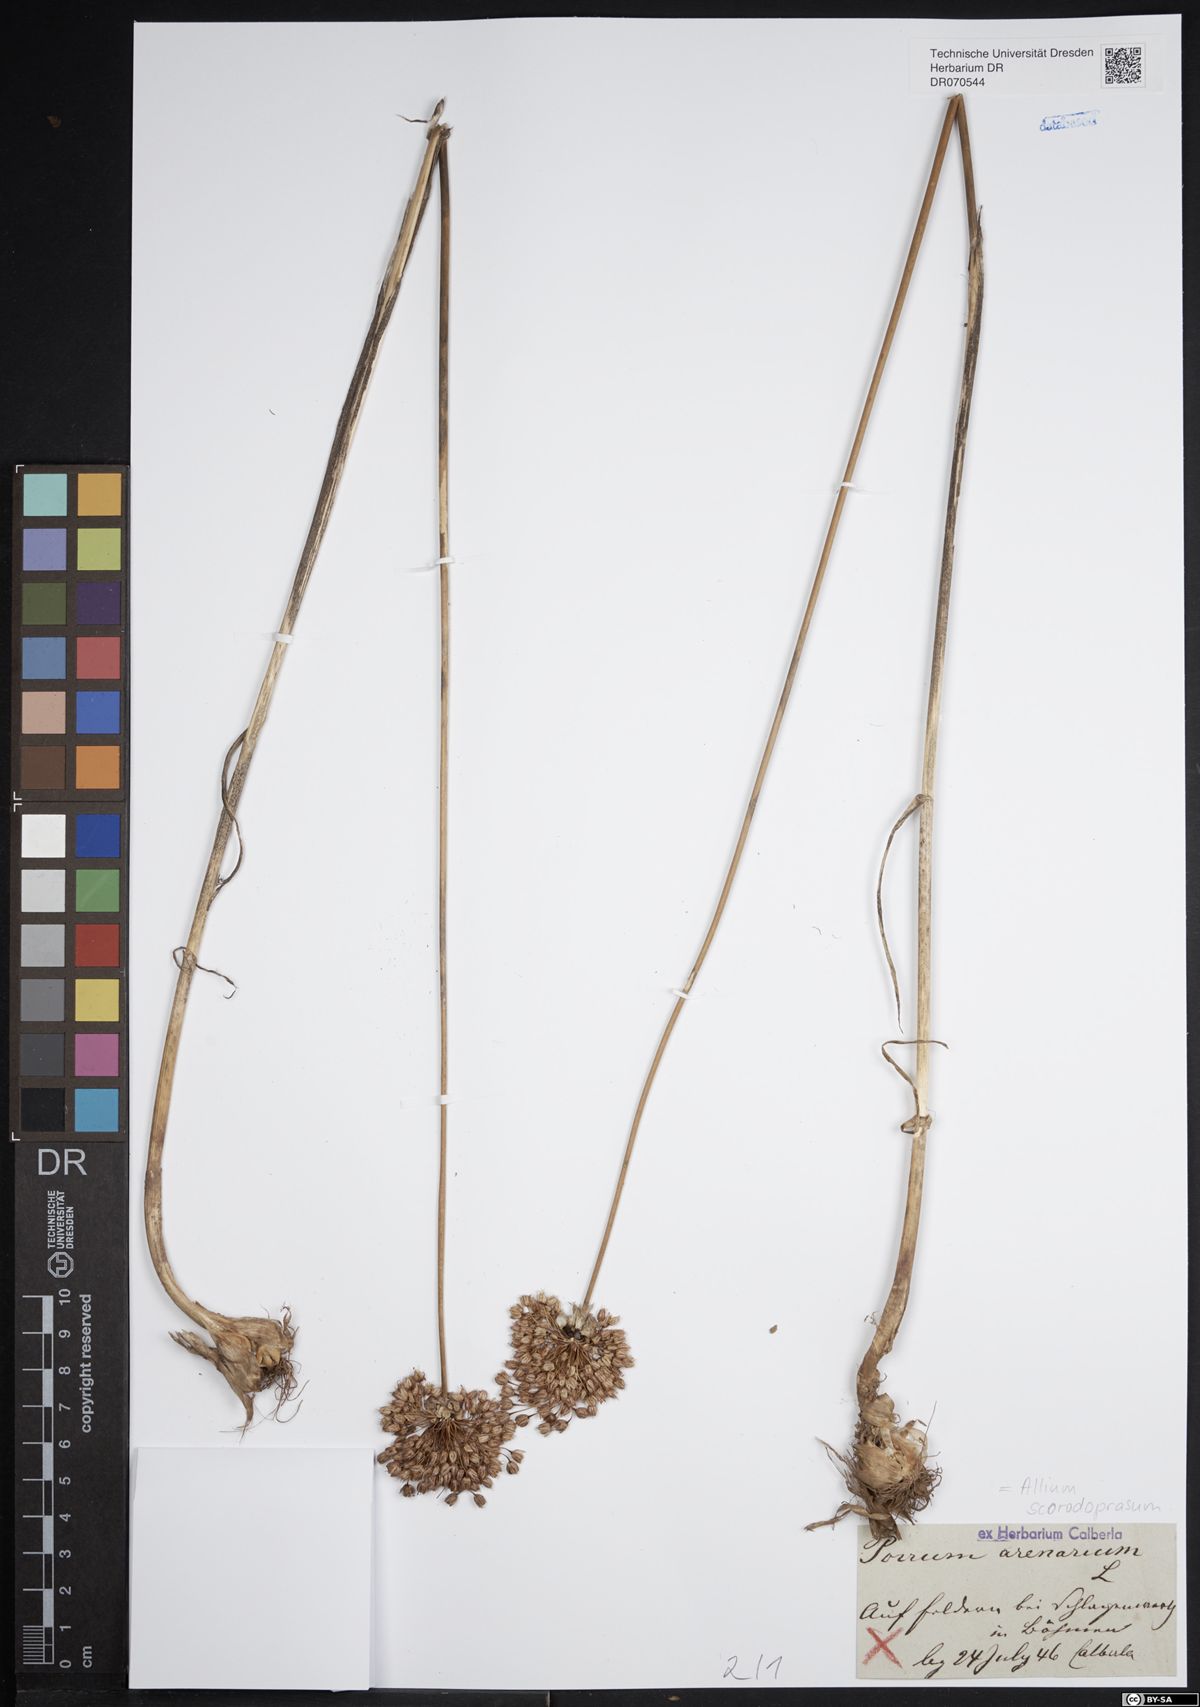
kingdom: Plantae
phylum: Tracheophyta
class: Liliopsida
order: Asparagales
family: Amaryllidaceae
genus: Allium
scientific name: Allium scorodoprasum
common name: Sand leek
